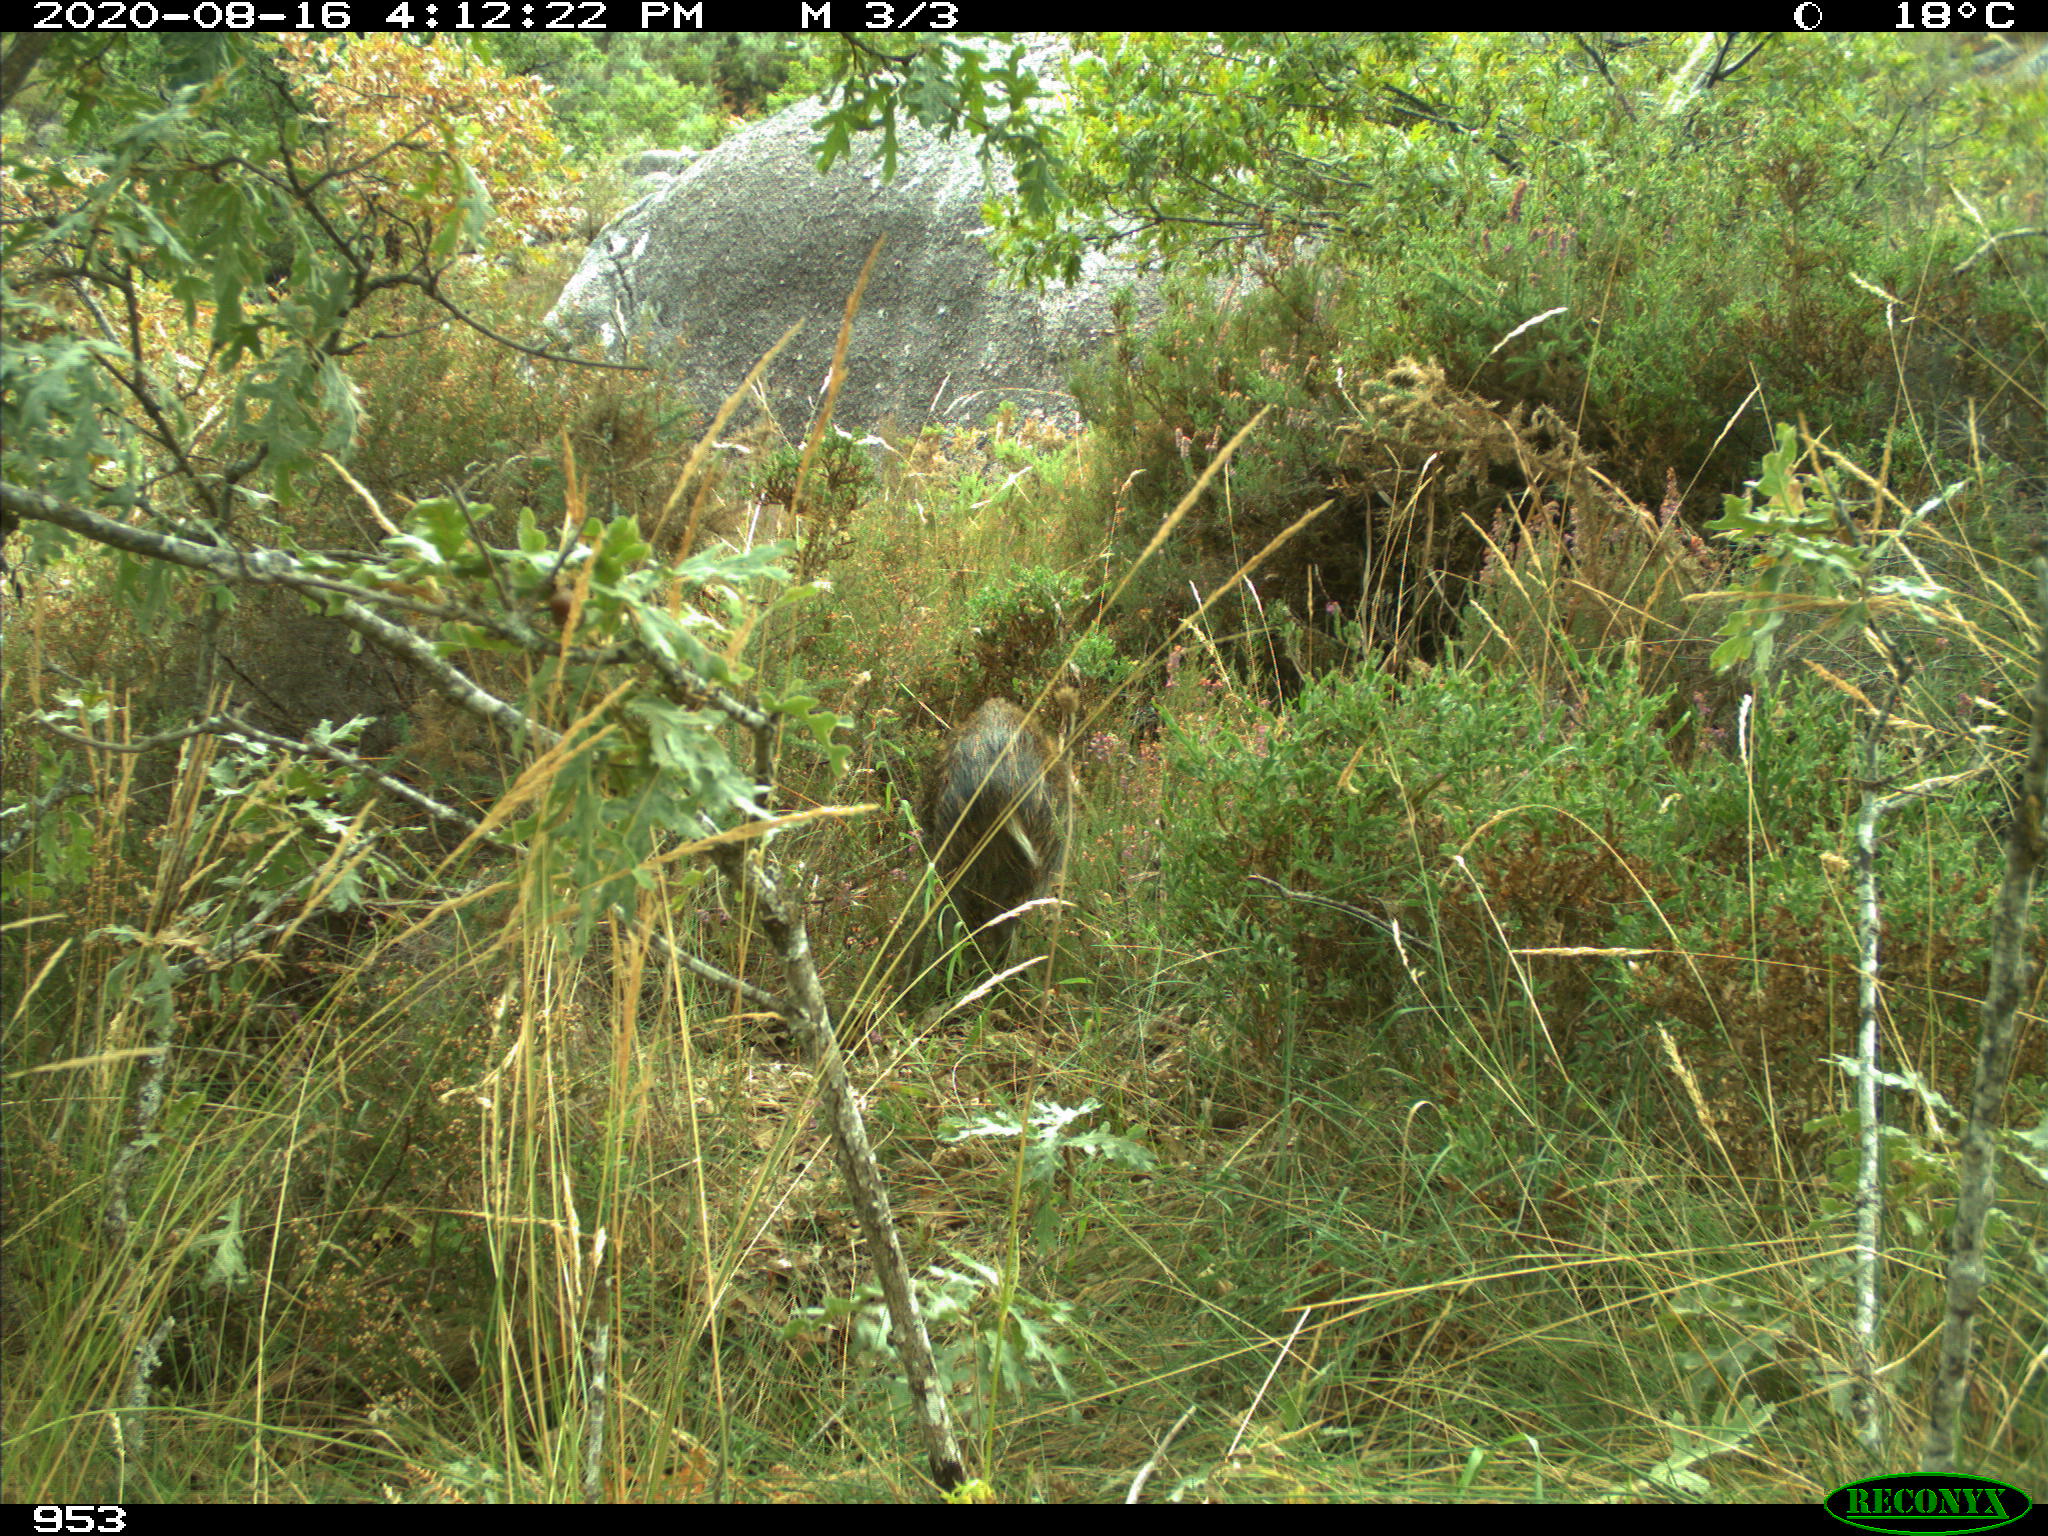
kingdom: Animalia
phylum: Chordata
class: Mammalia
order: Artiodactyla
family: Suidae
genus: Sus
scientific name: Sus scrofa
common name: Wild boar
